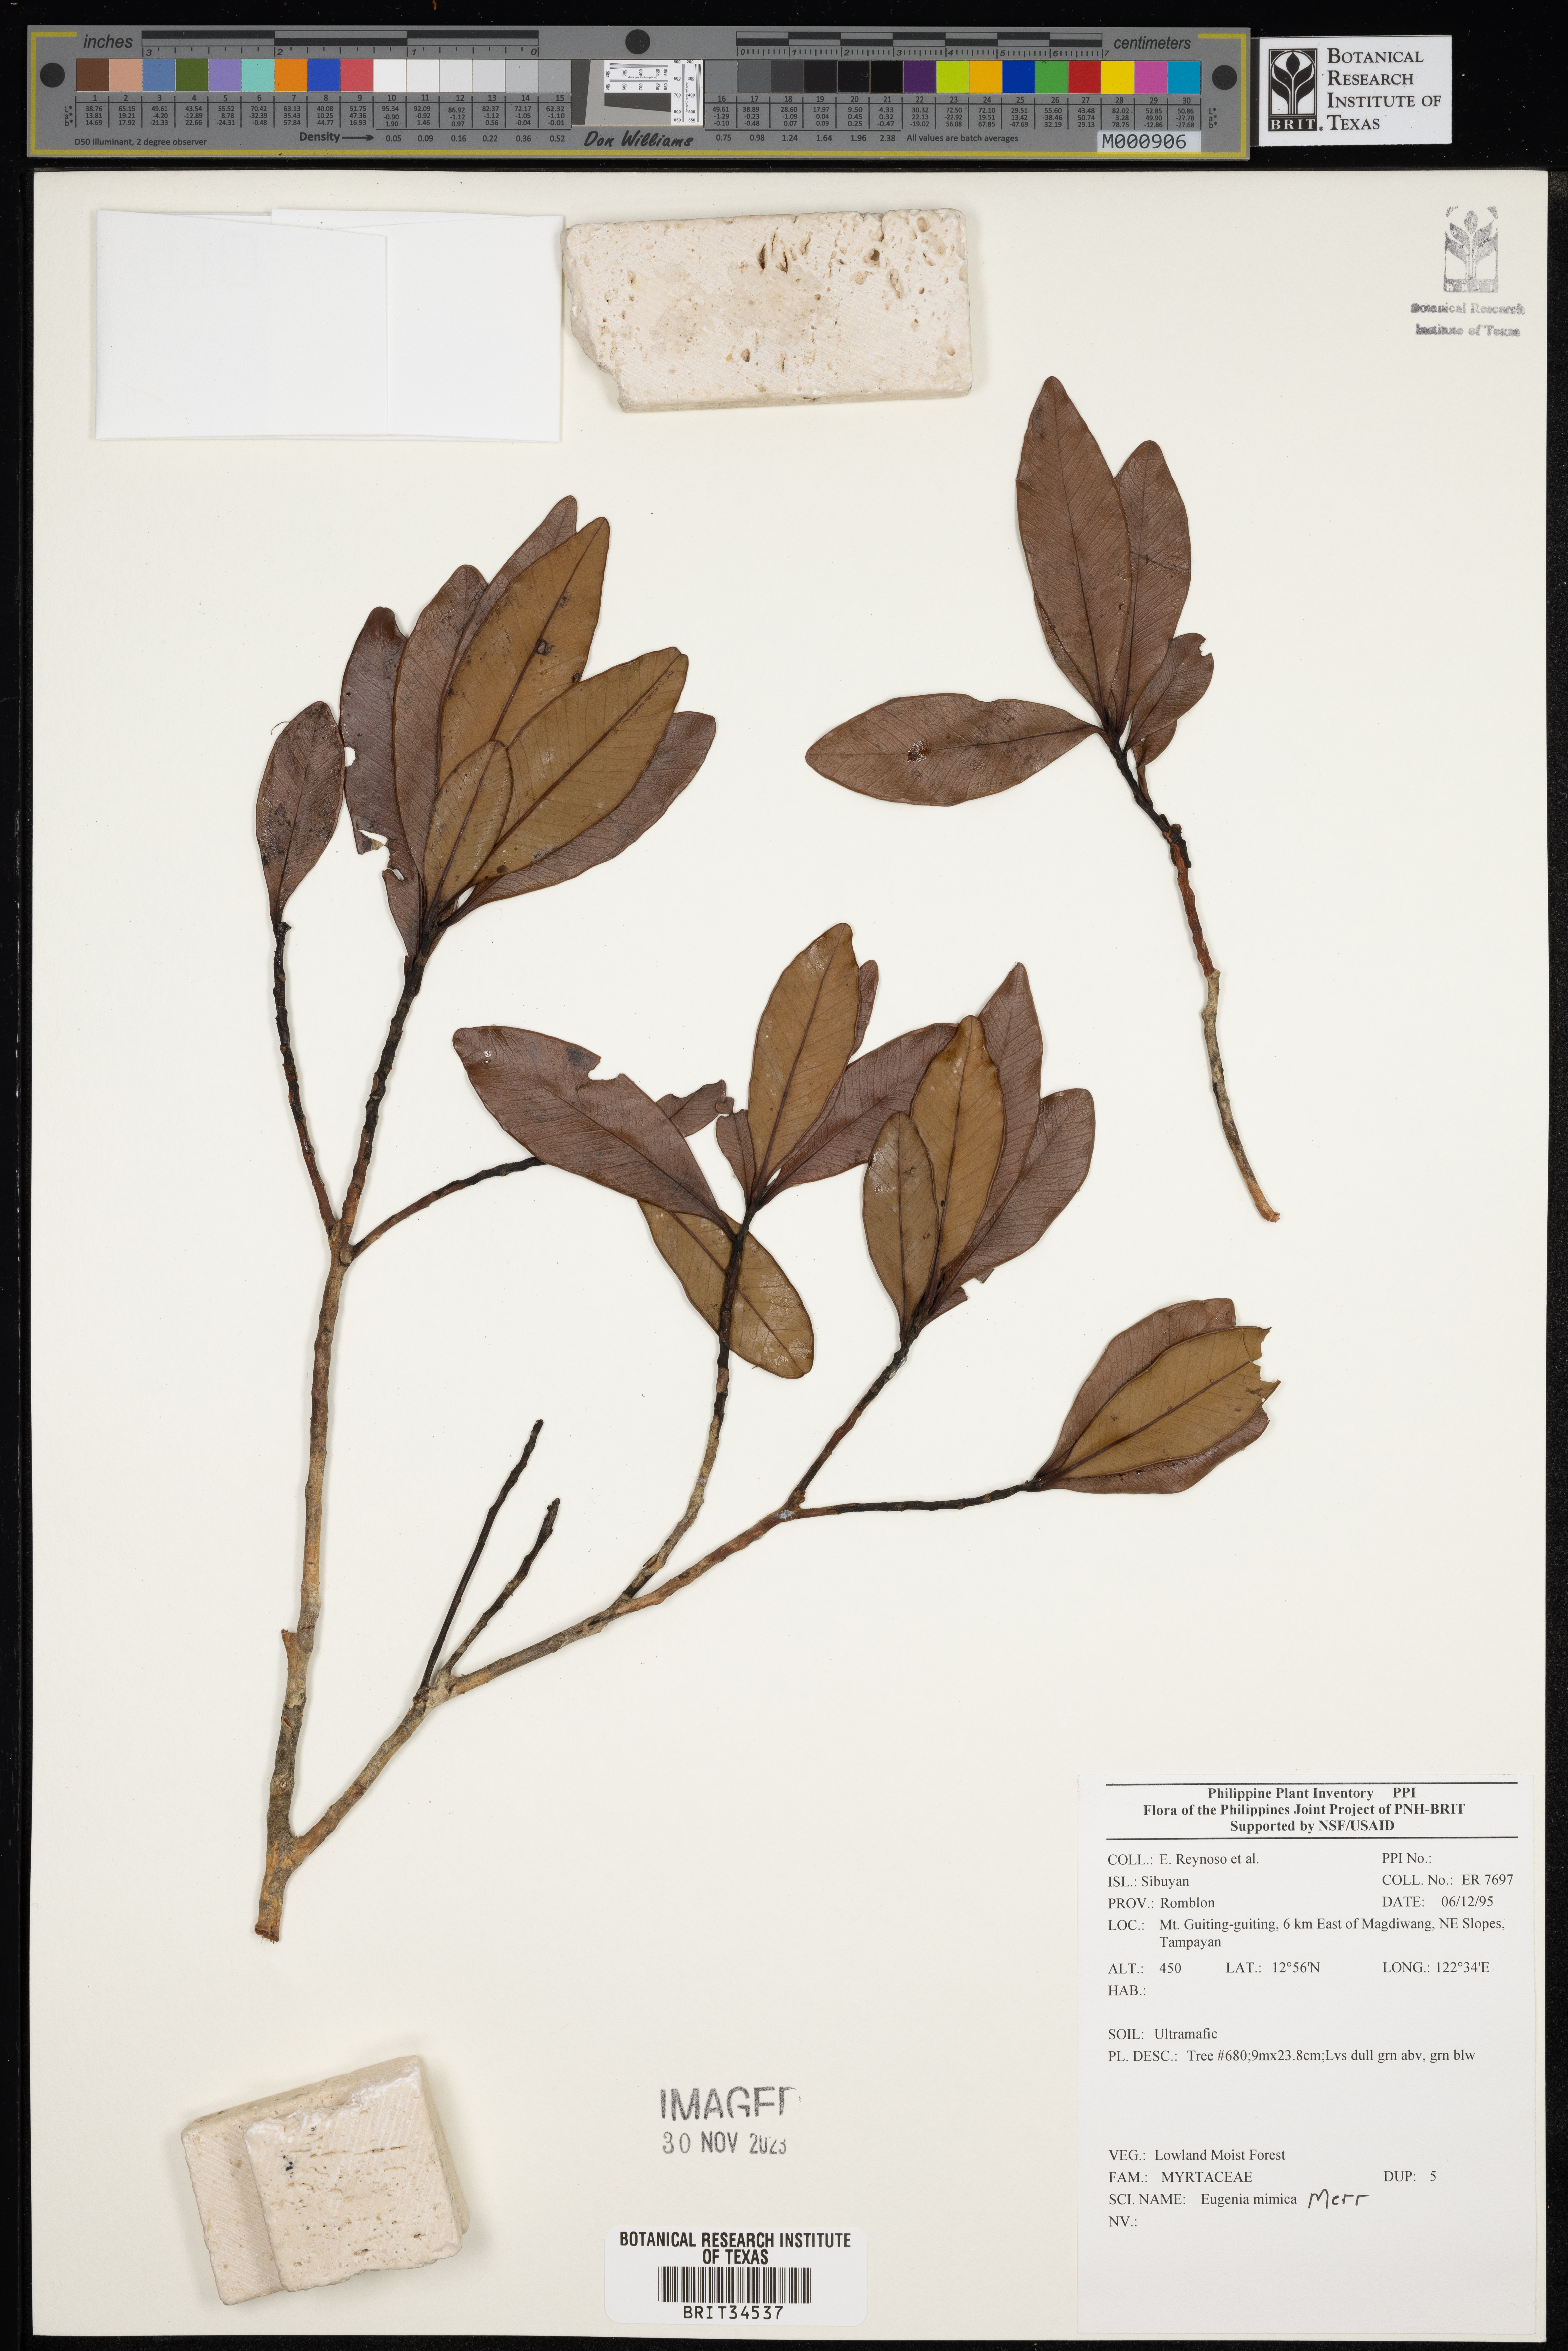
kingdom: Plantae
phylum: Tracheophyta
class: Magnoliopsida
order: Myrtales
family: Myrtaceae
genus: Eugenia
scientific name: Eugenia
